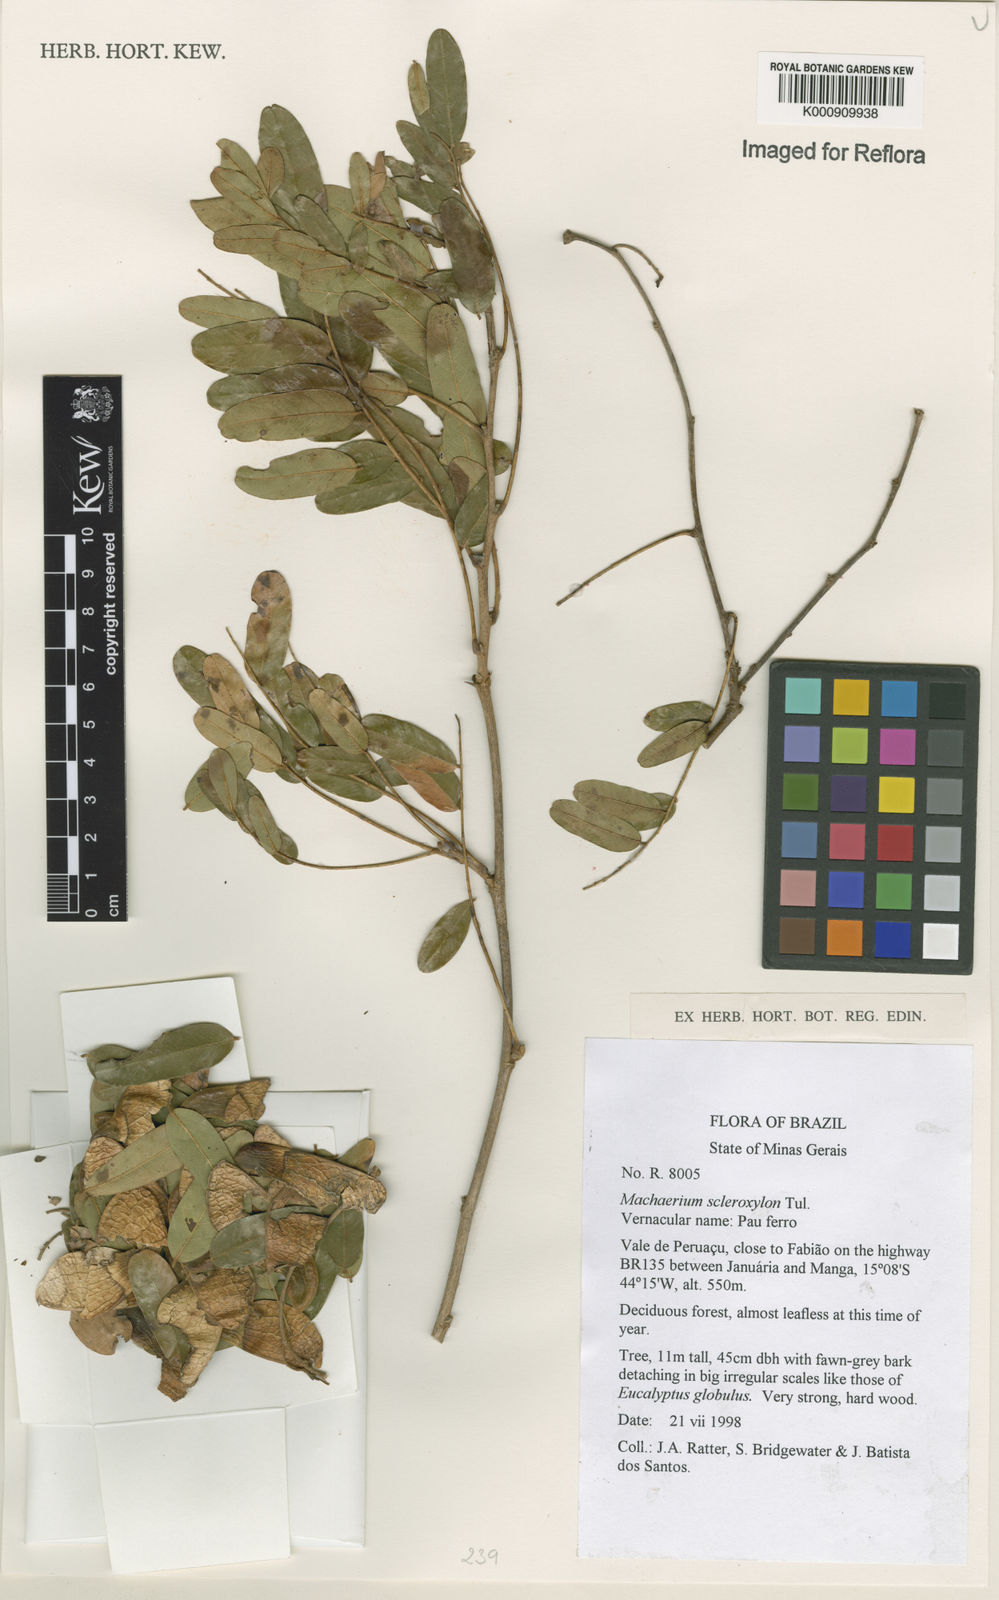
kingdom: Plantae
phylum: Tracheophyta
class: Magnoliopsida
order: Fabales
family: Fabaceae
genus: Machaerium
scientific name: Machaerium scleroxylon
